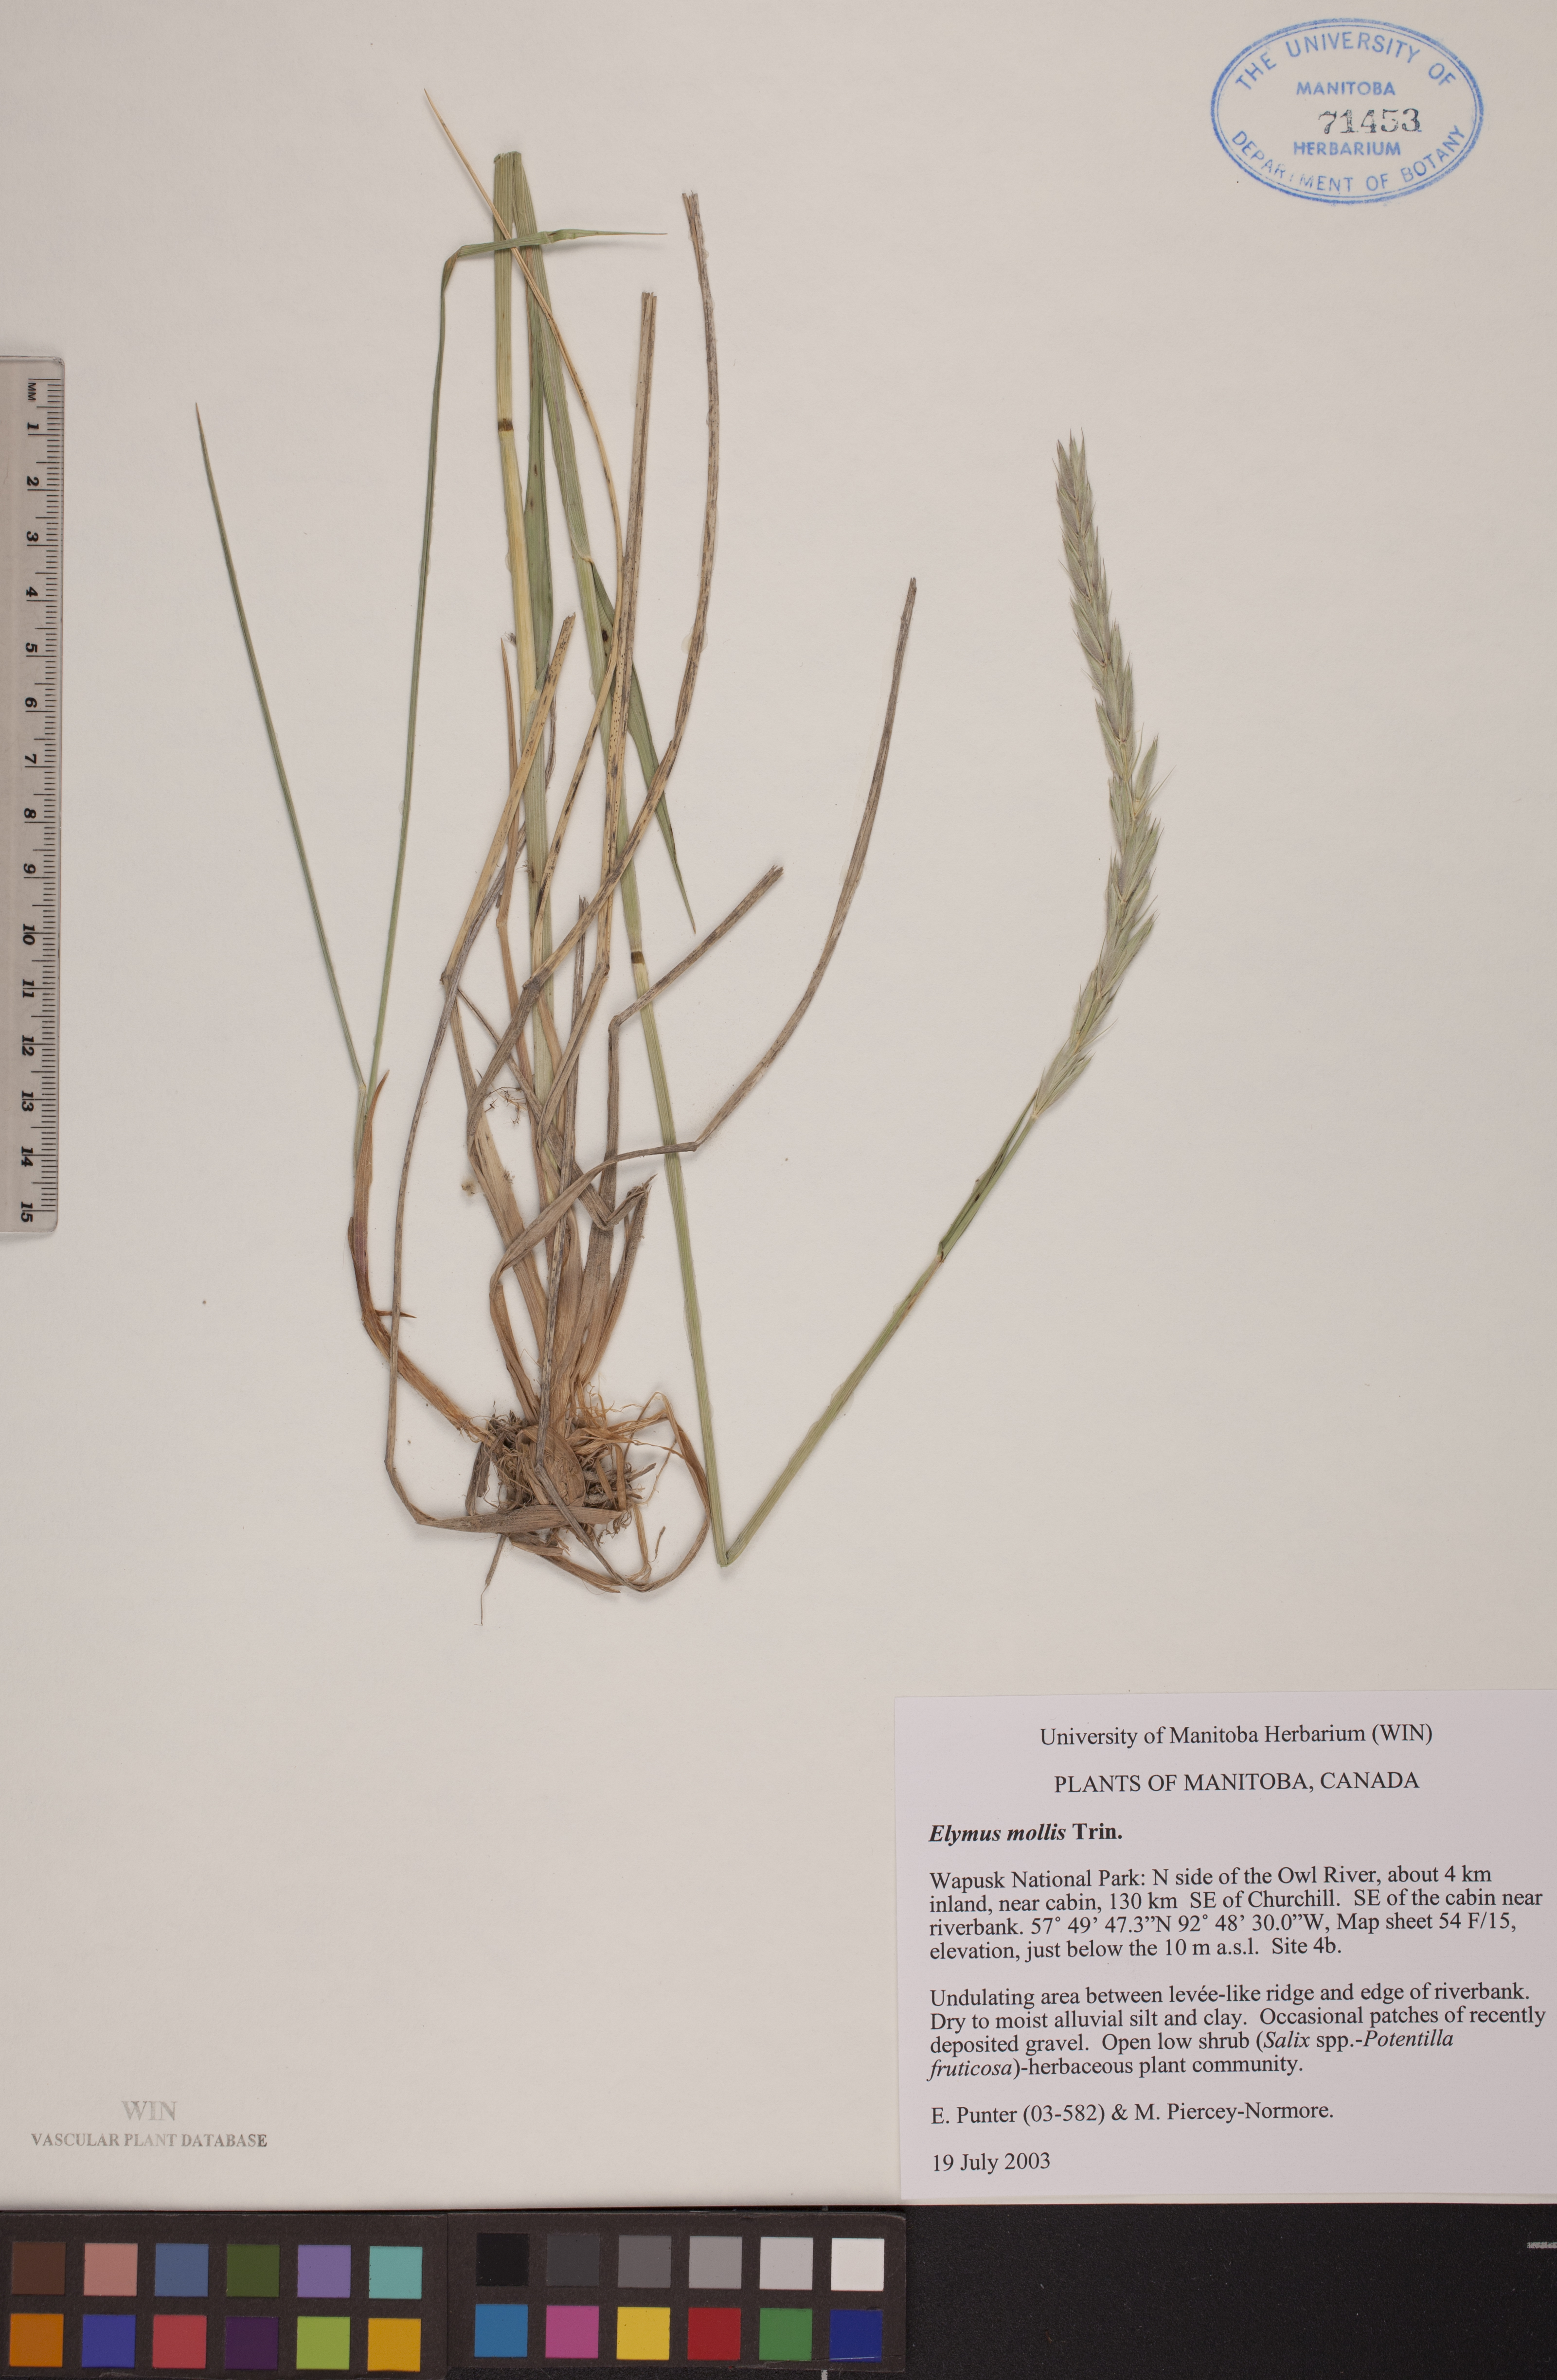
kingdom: Plantae
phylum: Tracheophyta
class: Liliopsida
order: Poales
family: Poaceae
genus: Leymus
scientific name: Leymus mollis
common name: American dune grass
